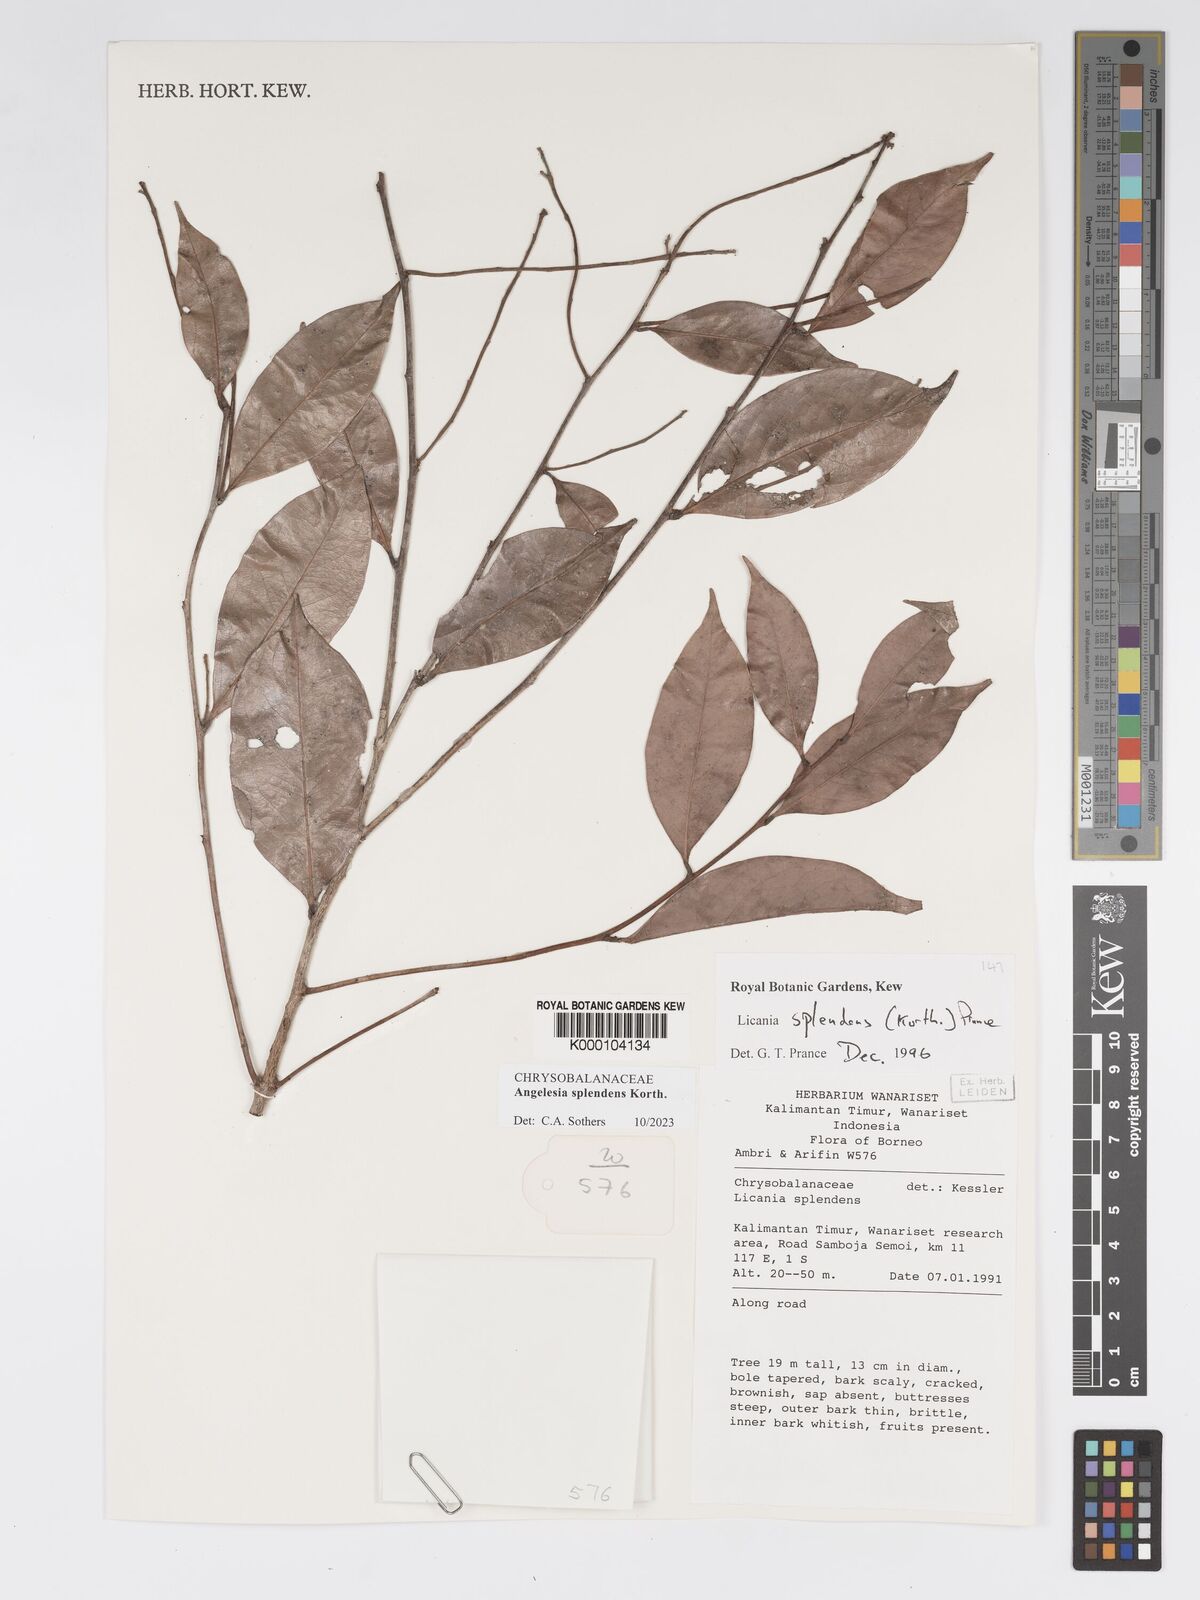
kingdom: Plantae
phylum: Tracheophyta
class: Magnoliopsida
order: Malpighiales
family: Chrysobalanaceae
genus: Angelesia
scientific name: Angelesia splendens
